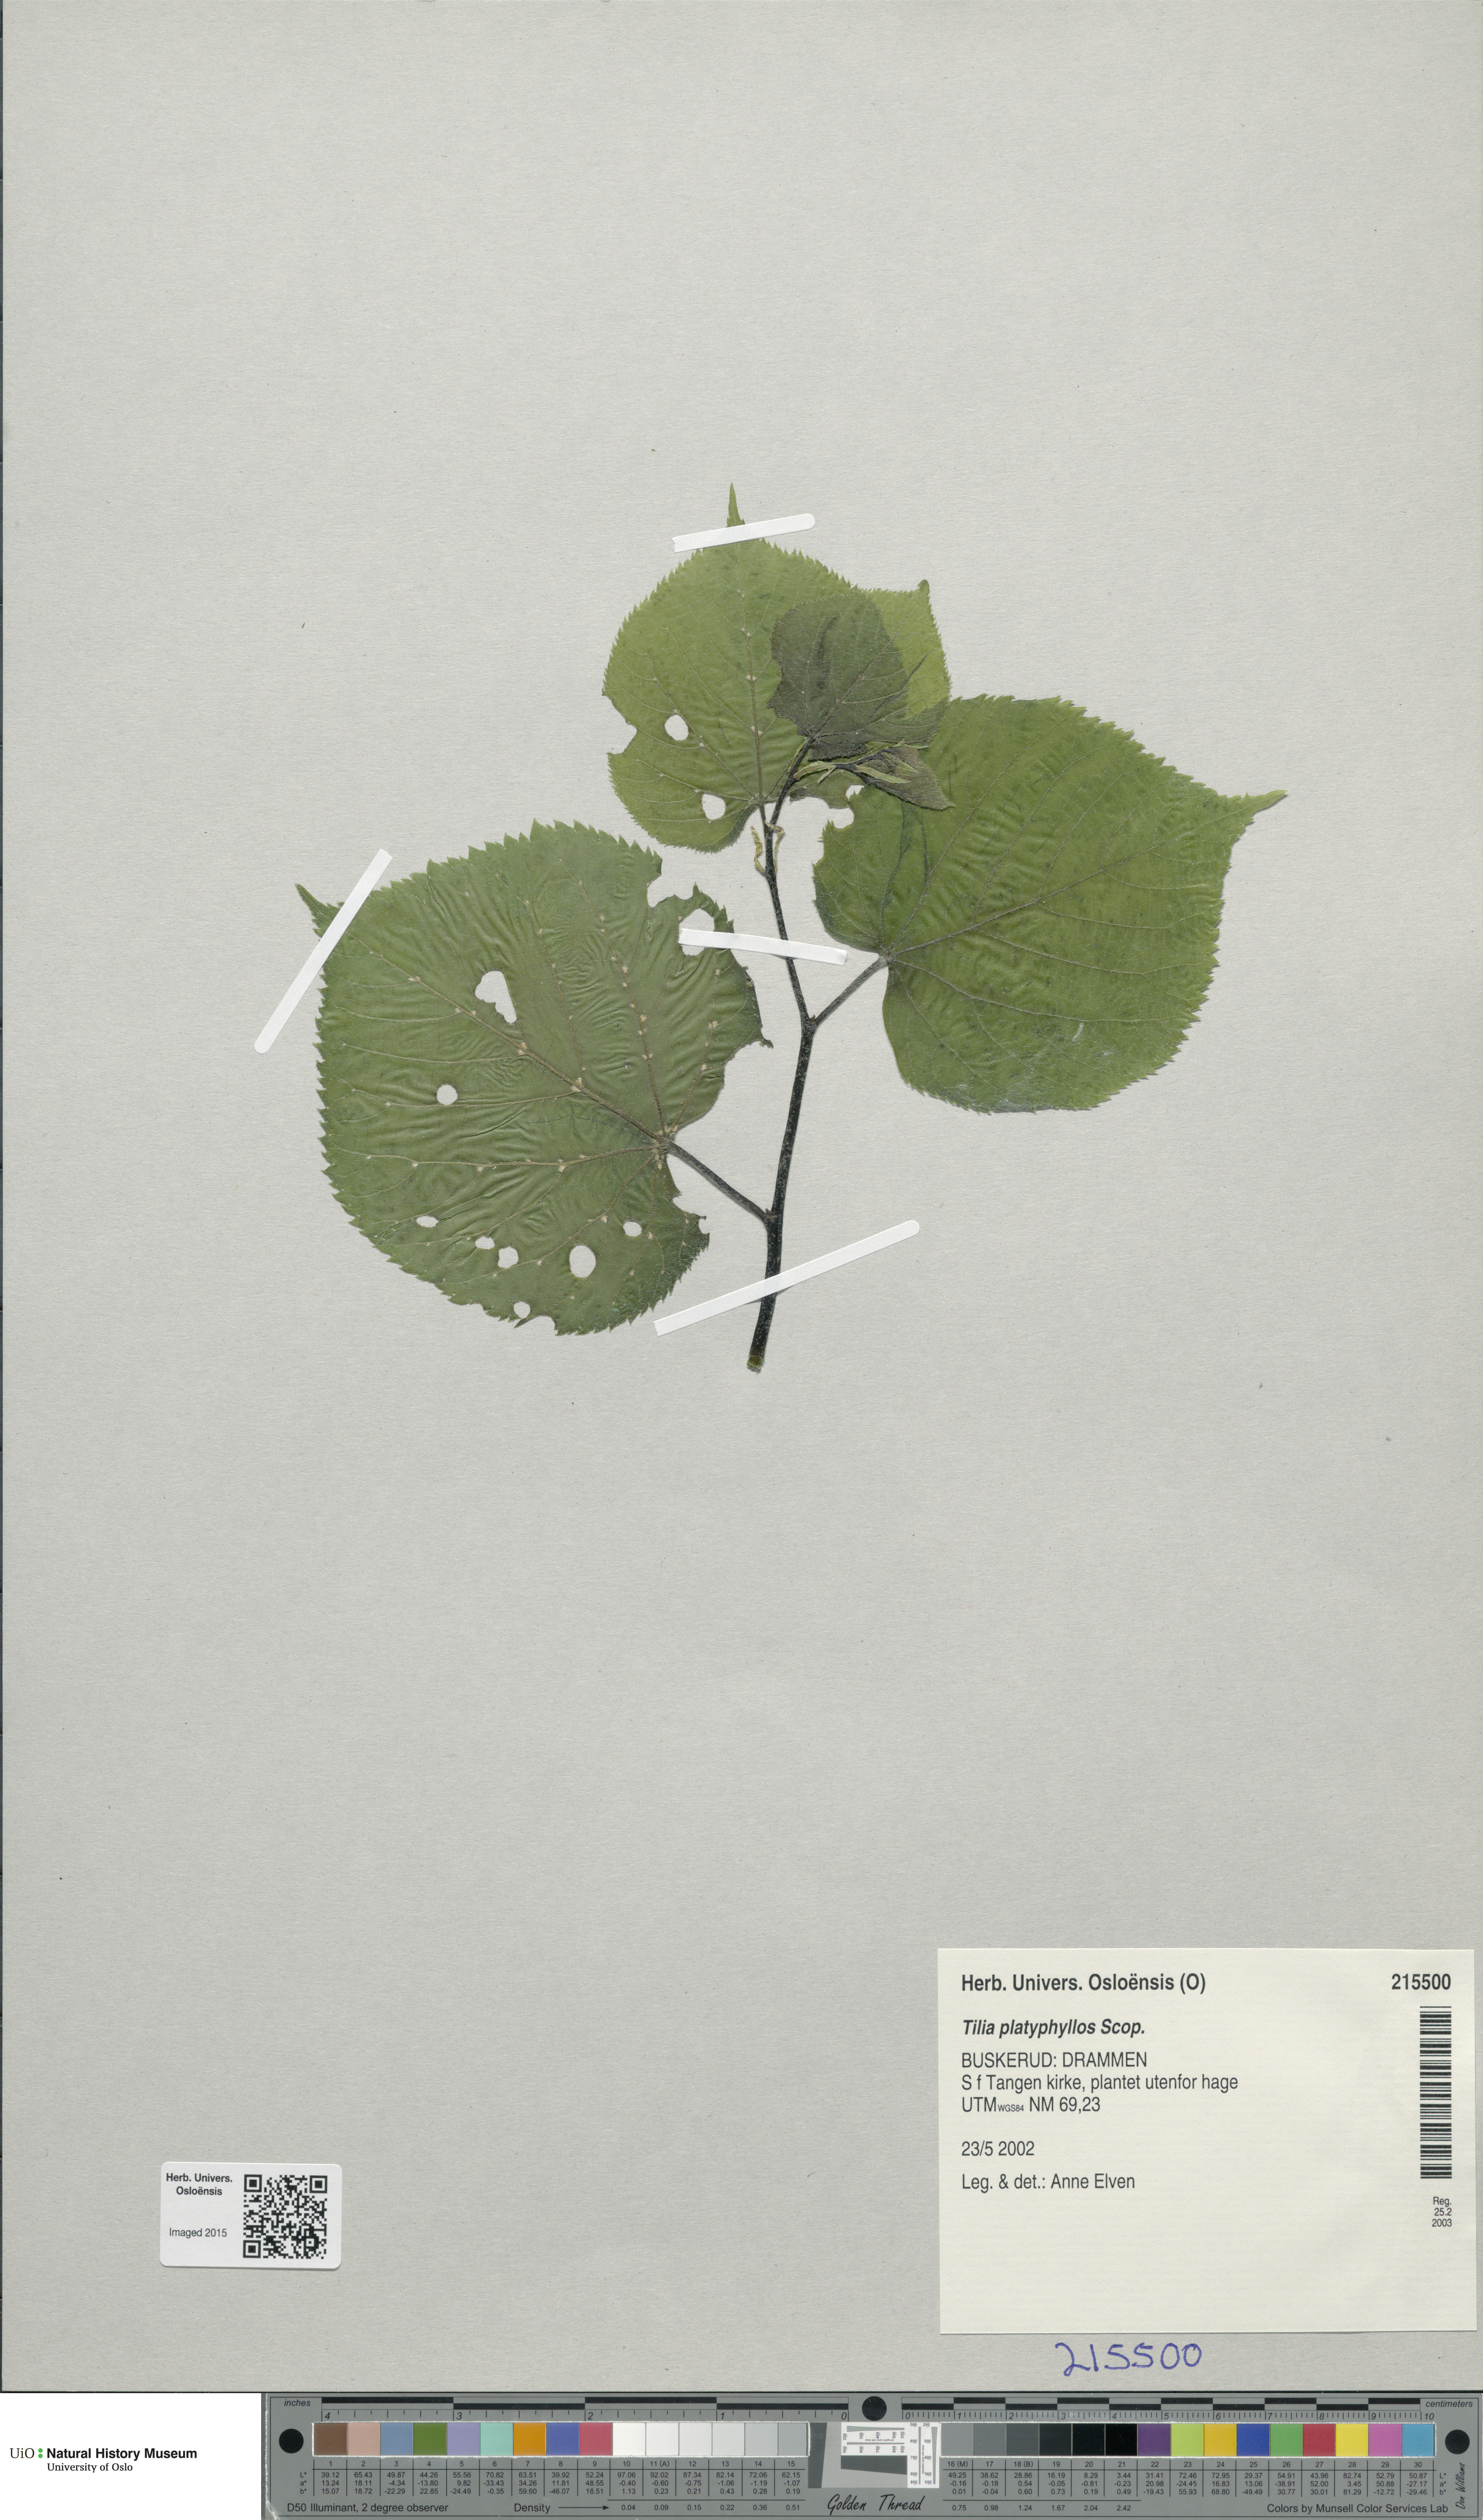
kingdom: Plantae
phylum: Tracheophyta
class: Magnoliopsida
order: Malvales
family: Malvaceae
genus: Tilia
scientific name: Tilia platyphyllos
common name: Large-leaved lime
